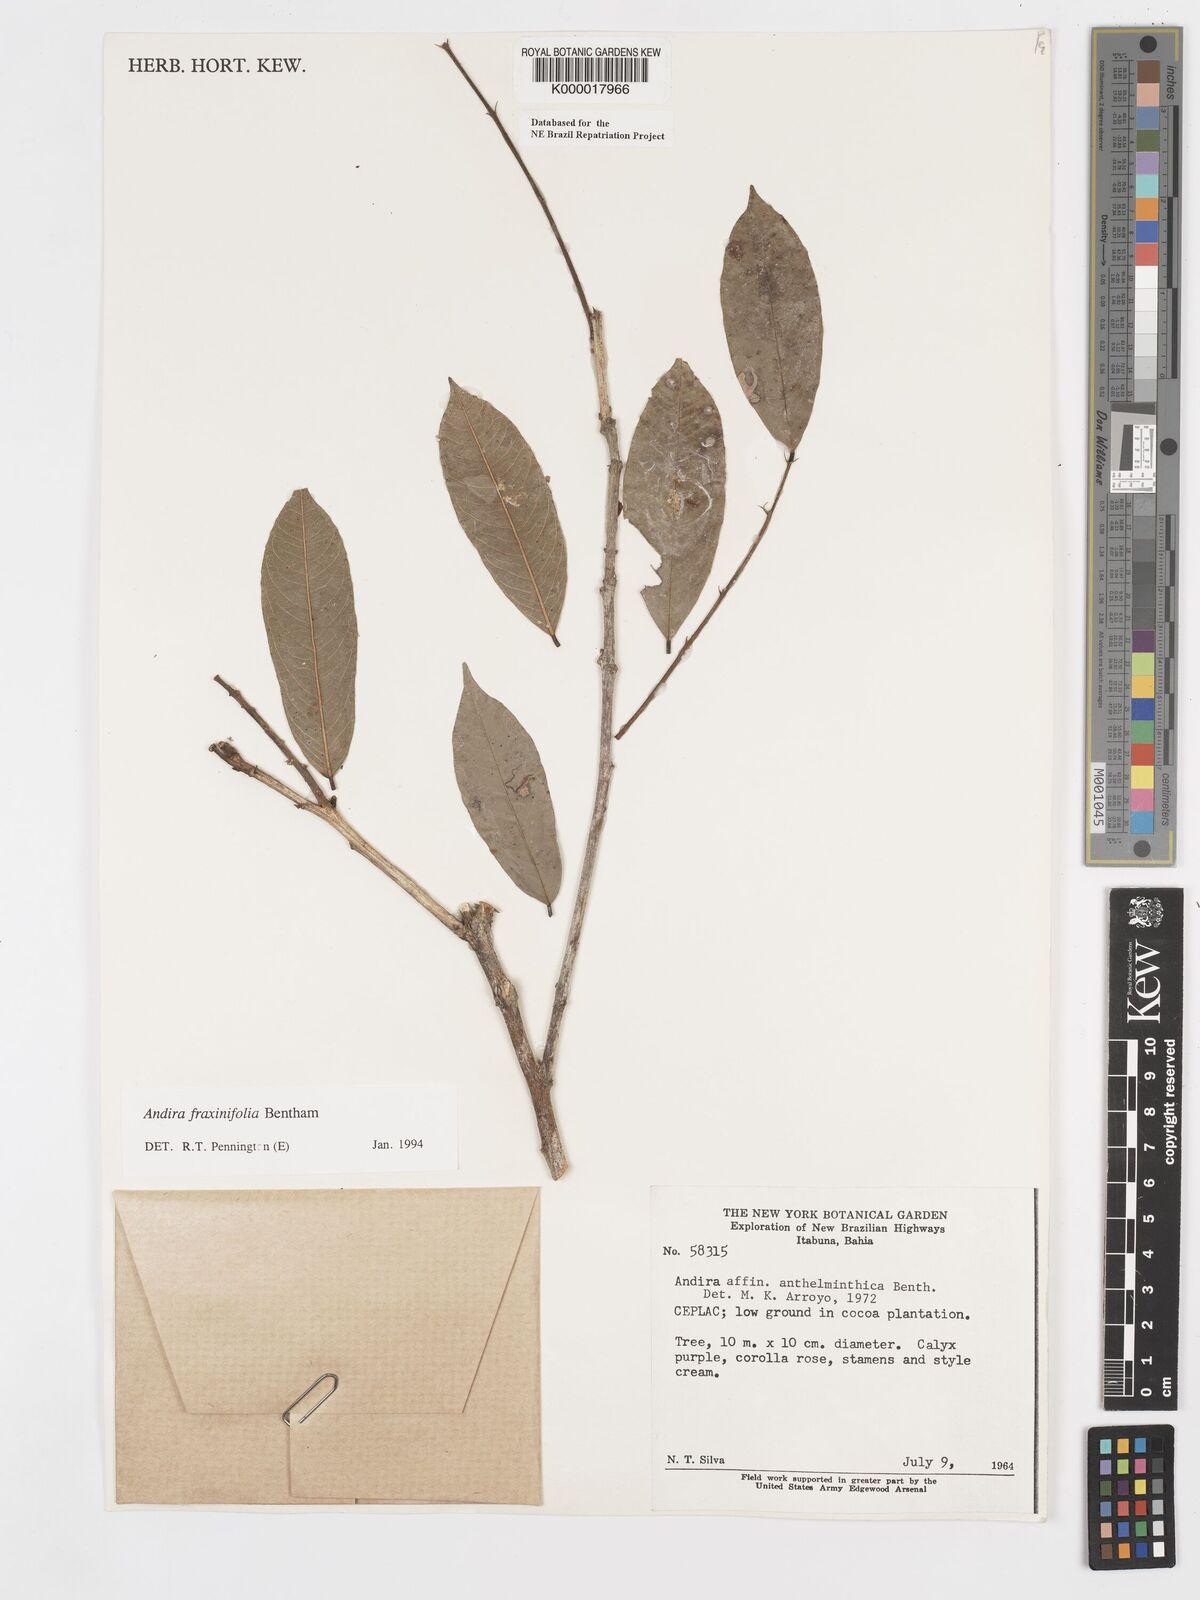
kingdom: Plantae
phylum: Tracheophyta
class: Magnoliopsida
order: Fabales
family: Fabaceae
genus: Andira
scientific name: Andira fraxinifolia
